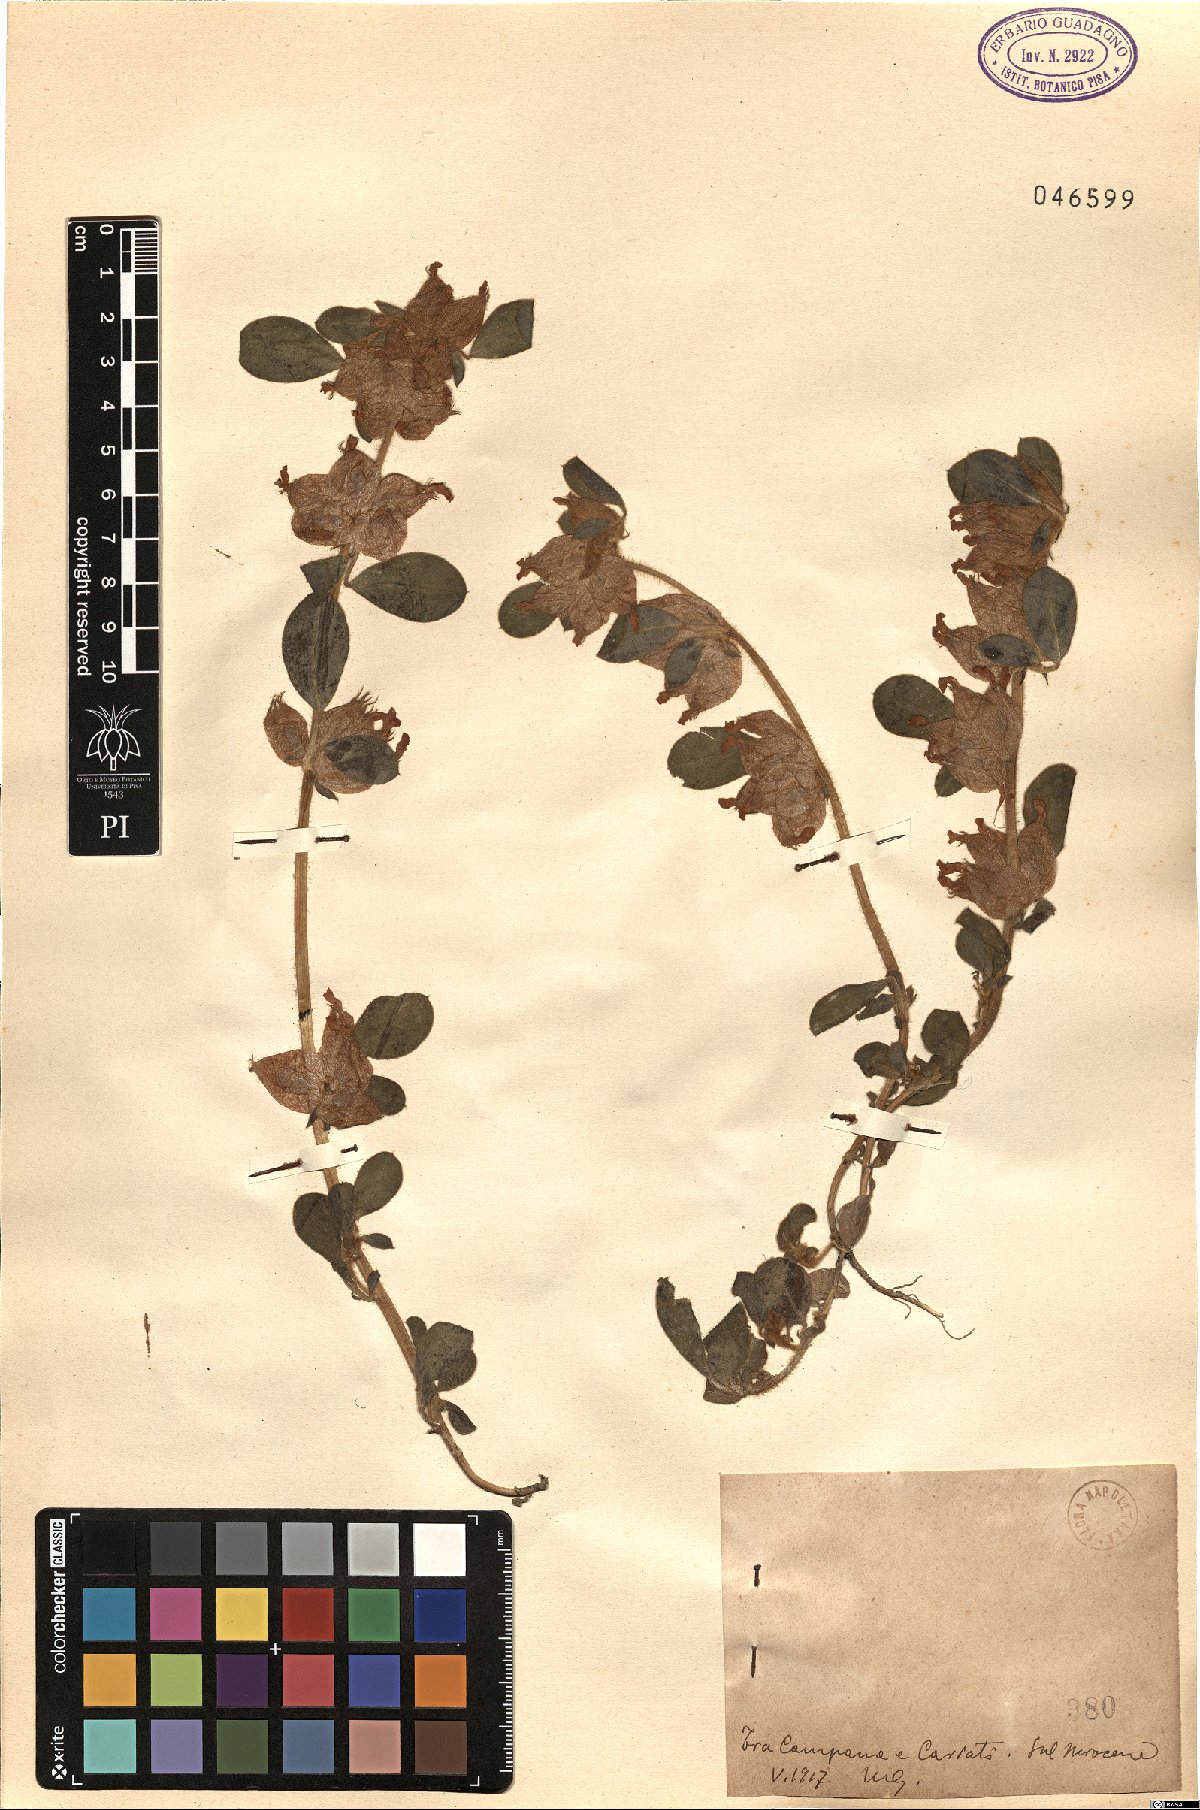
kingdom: Plantae
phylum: Tracheophyta
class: Magnoliopsida
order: Fabales
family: Fabaceae
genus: Anthyllis
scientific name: Anthyllis
